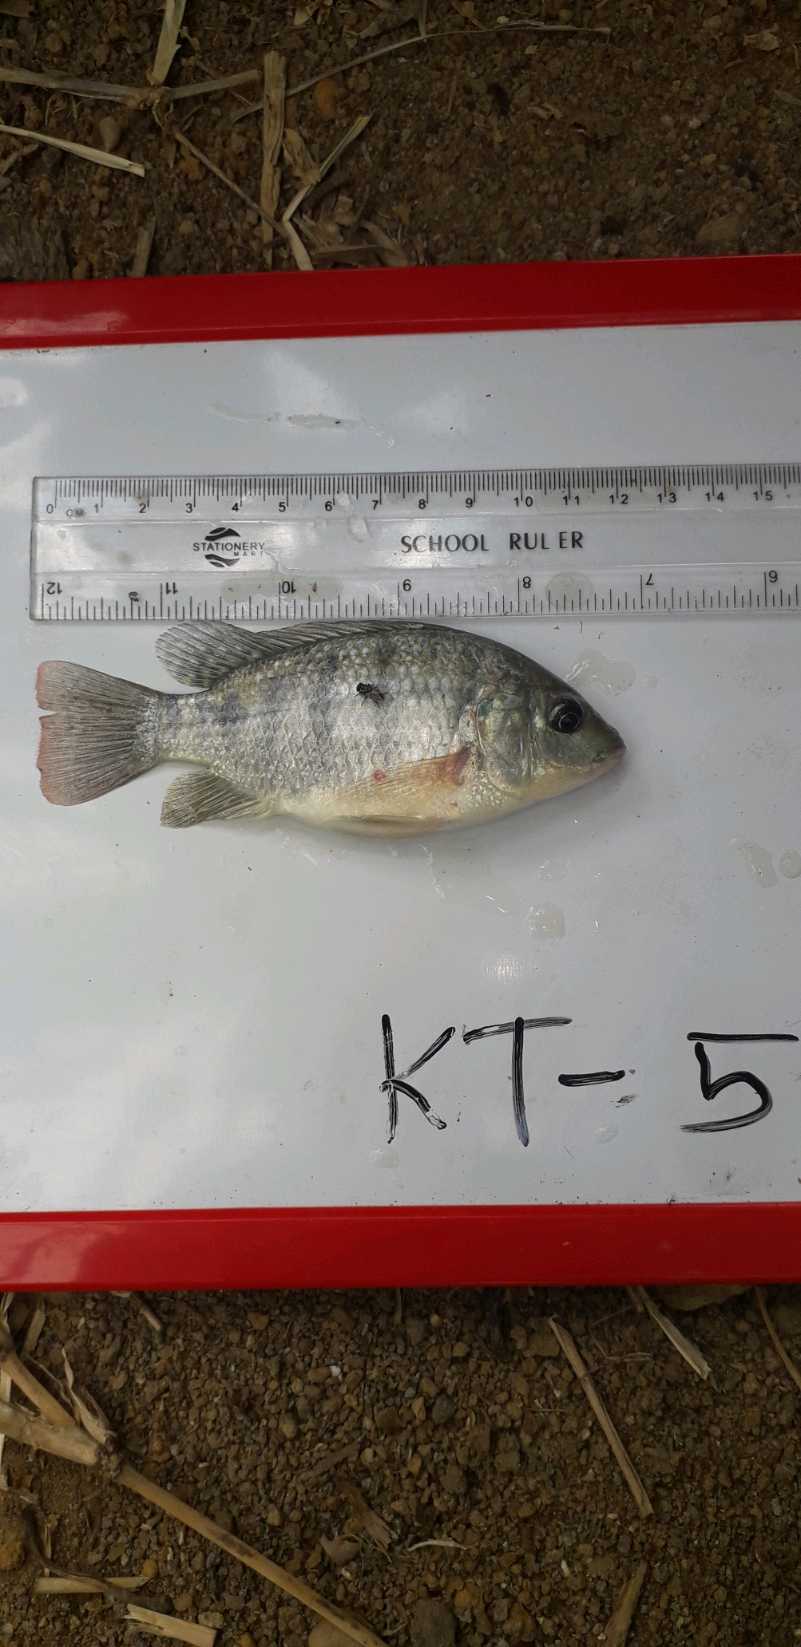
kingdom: Animalia
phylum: Chordata
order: Perciformes
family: Cichlidae
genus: Oreochromis
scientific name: Oreochromis
